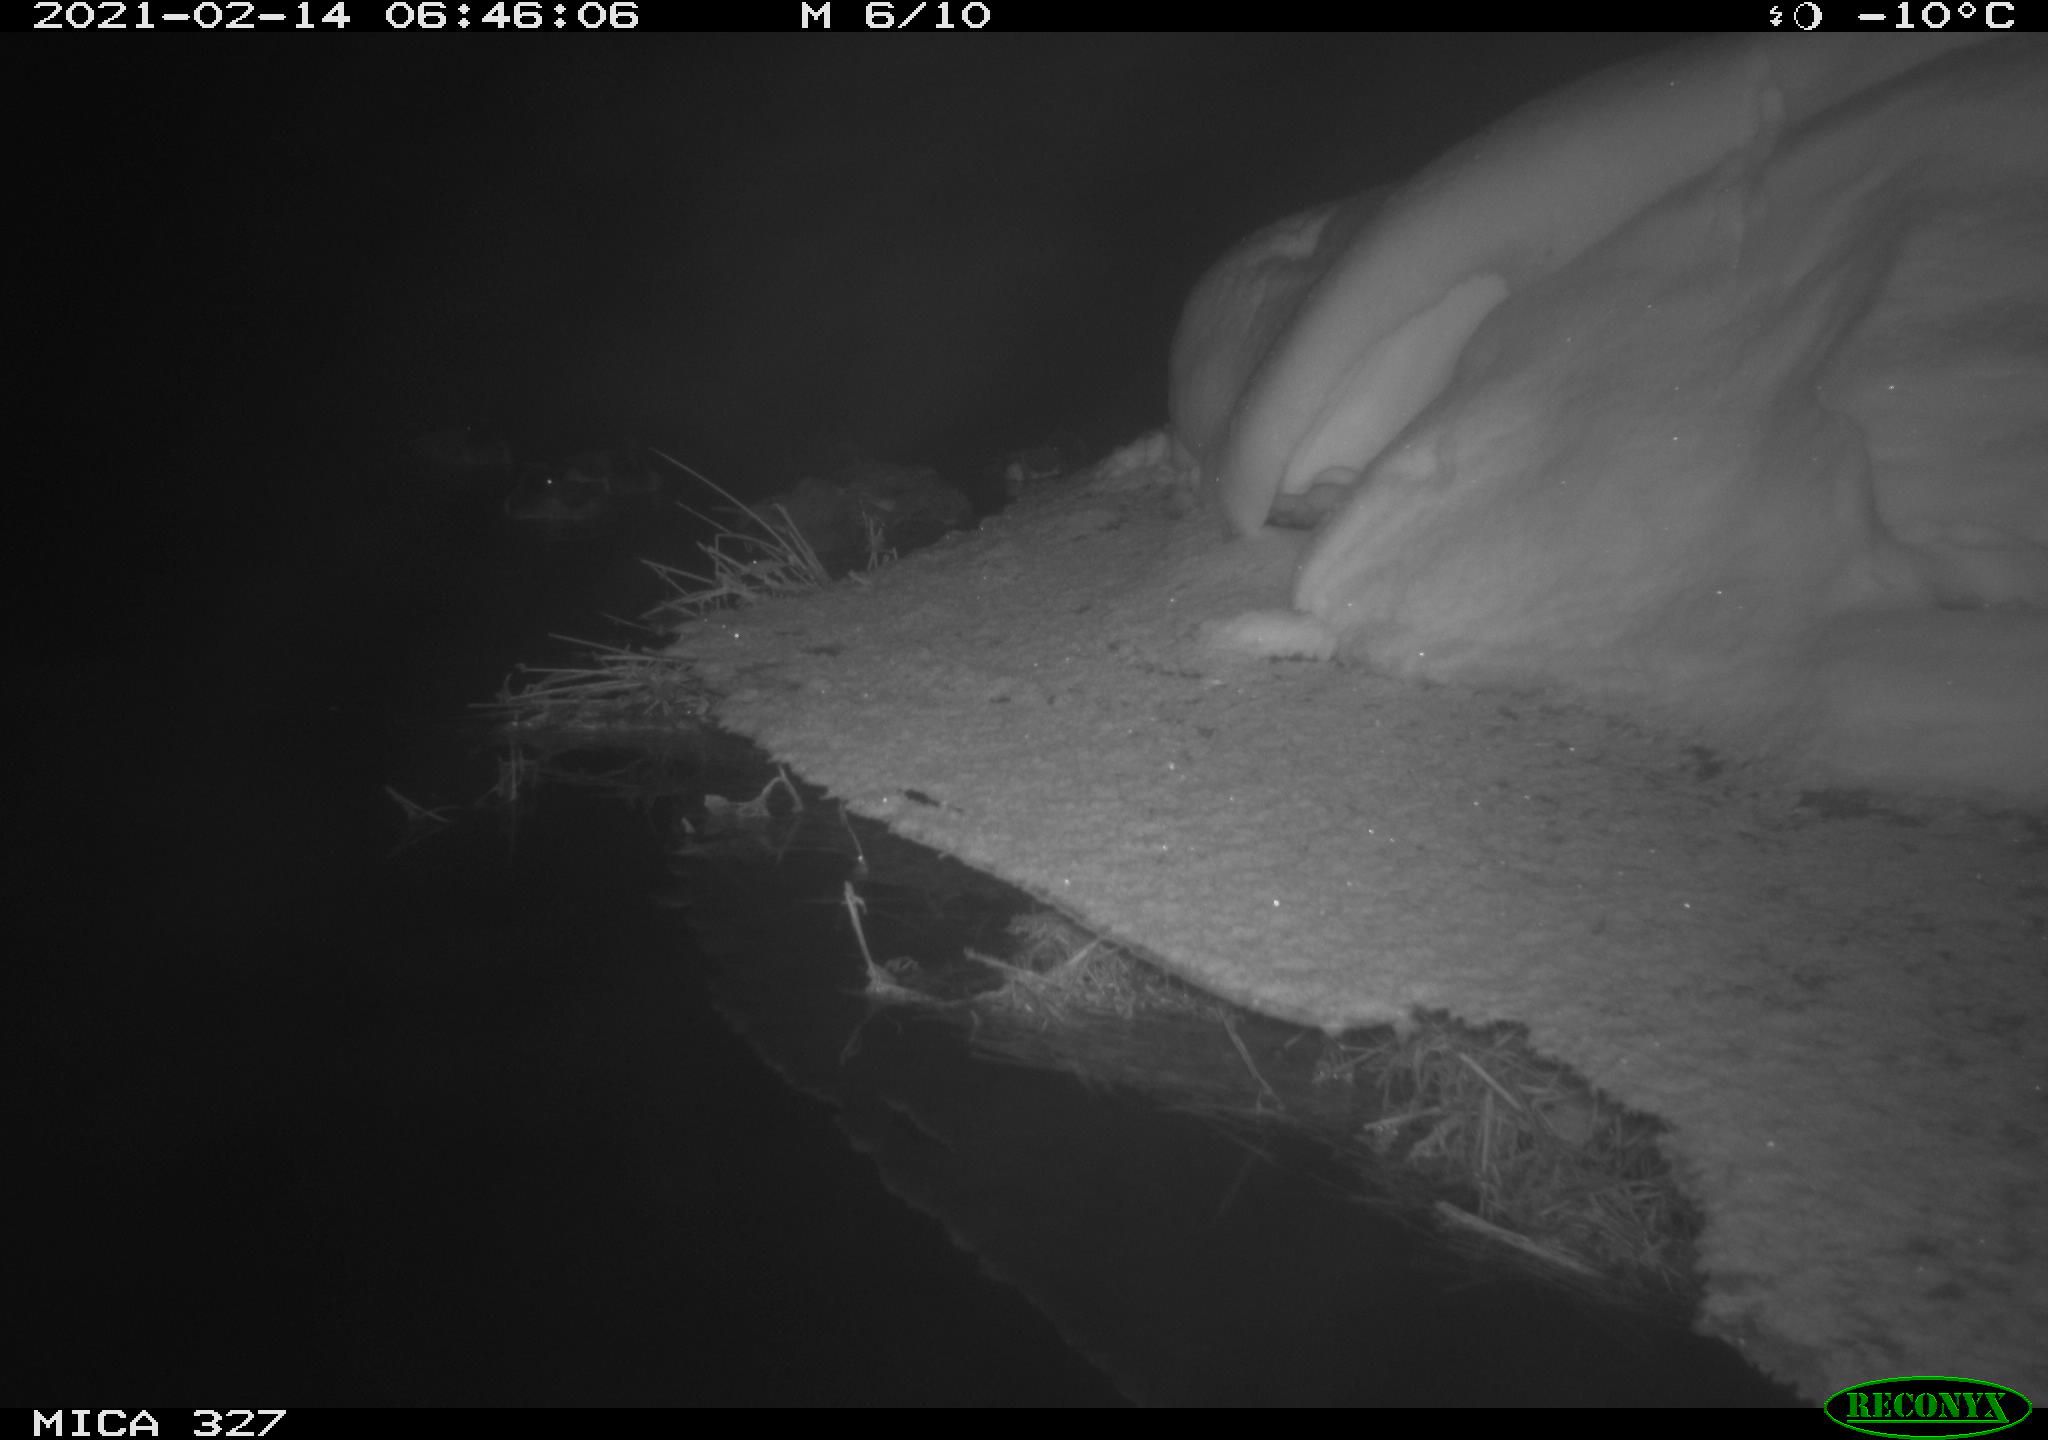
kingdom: Animalia
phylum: Chordata
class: Aves
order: Anseriformes
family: Anatidae
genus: Anas
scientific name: Anas
